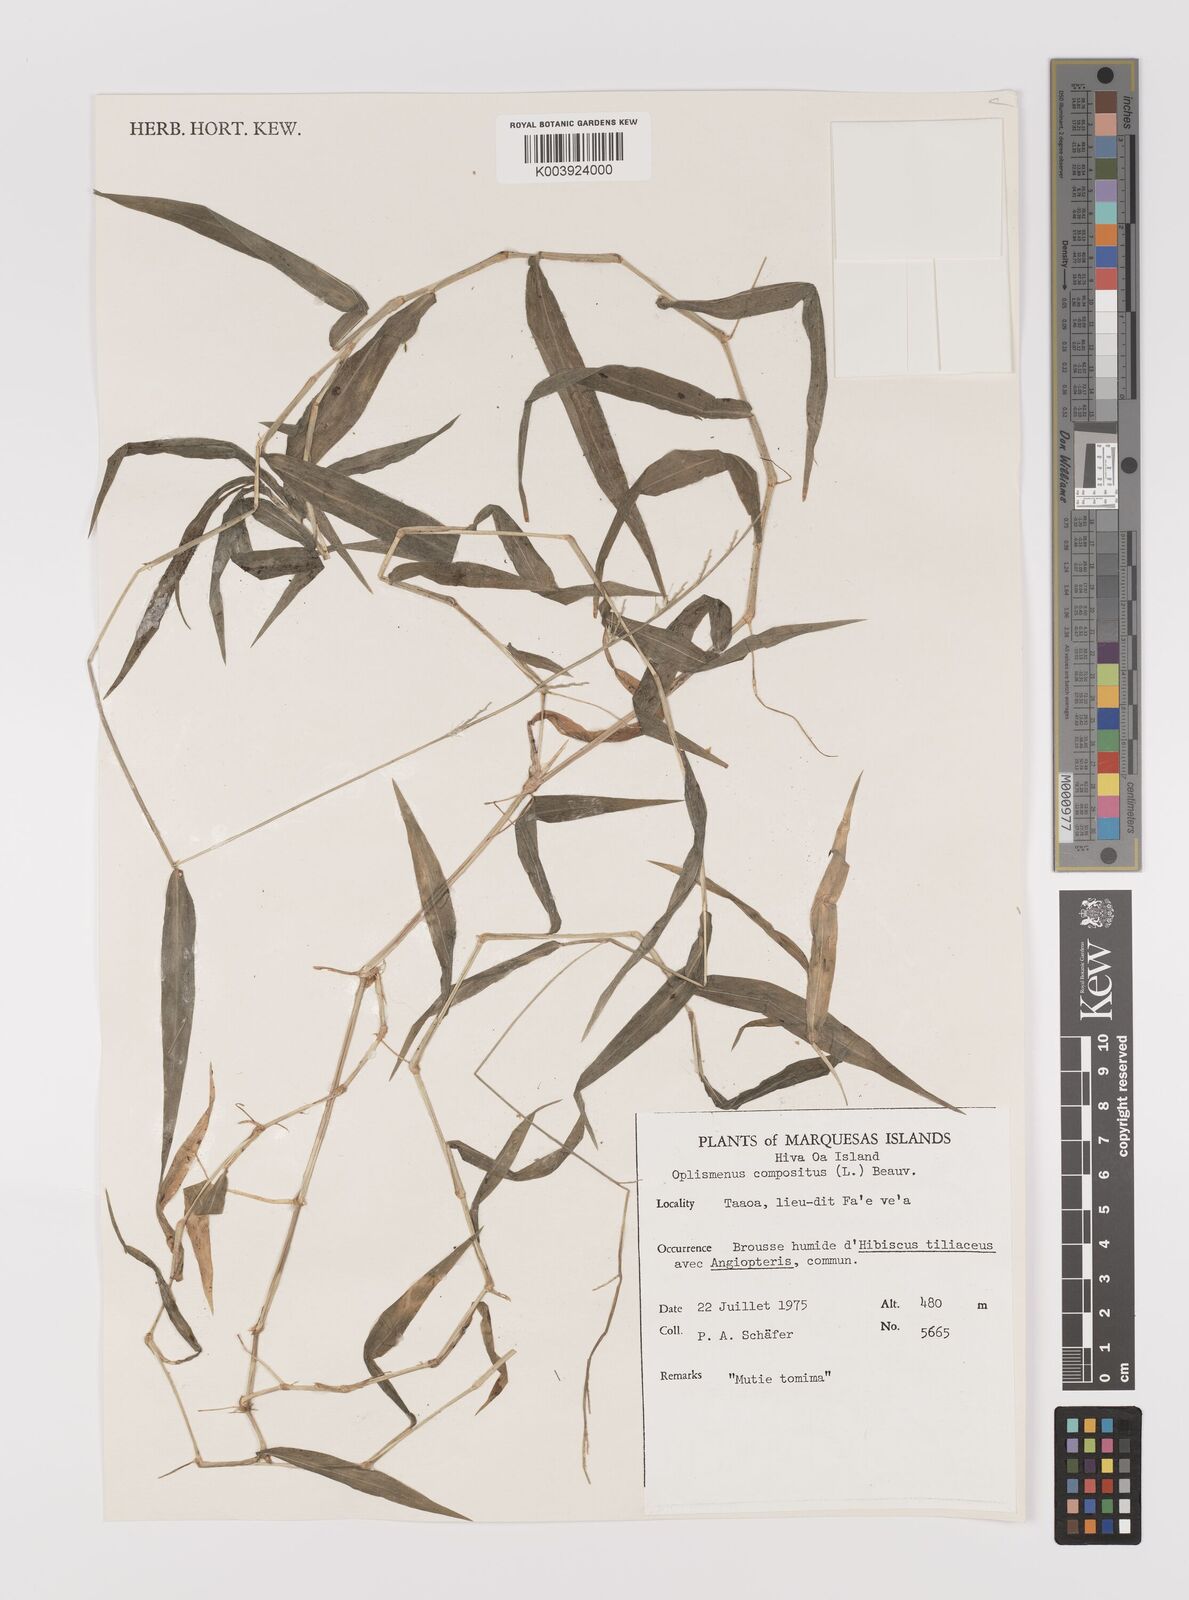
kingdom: Plantae
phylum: Tracheophyta
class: Liliopsida
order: Poales
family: Poaceae
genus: Oplismenus
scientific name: Oplismenus compositus
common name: Running mountain grass
